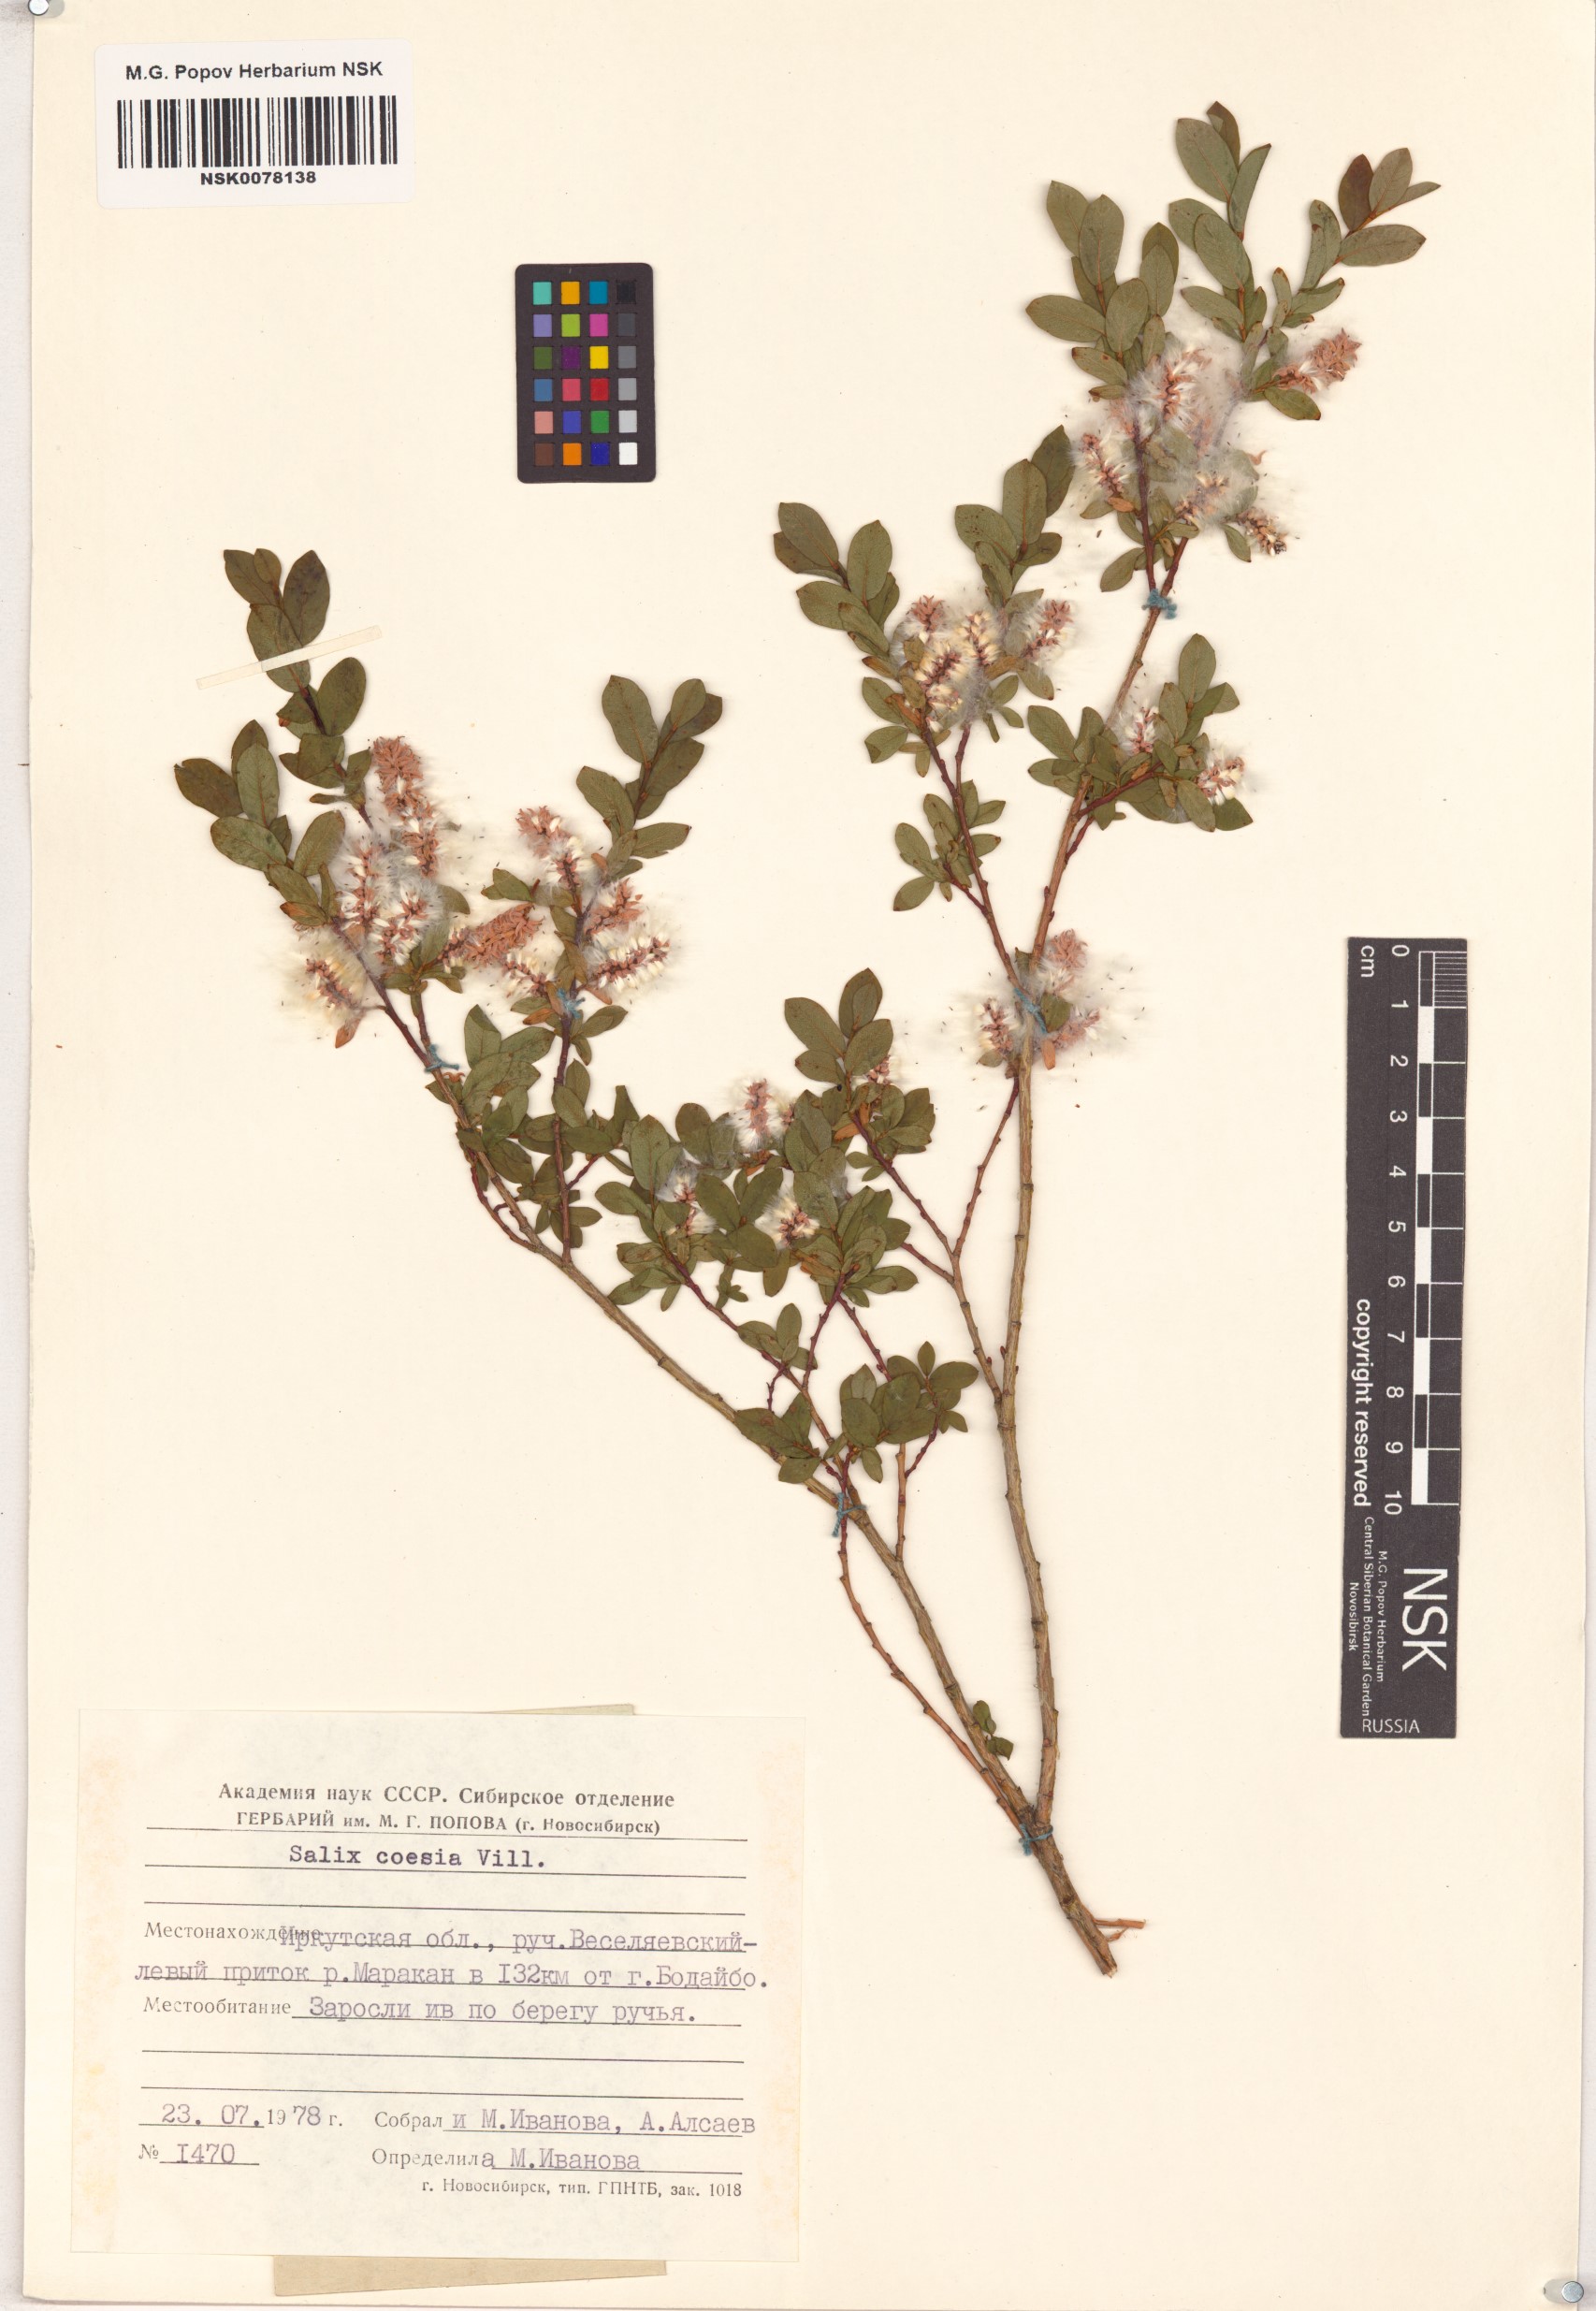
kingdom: Plantae
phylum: Tracheophyta
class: Magnoliopsida
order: Malpighiales
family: Salicaceae
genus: Salix
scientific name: Salix caesia
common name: Blue willow
